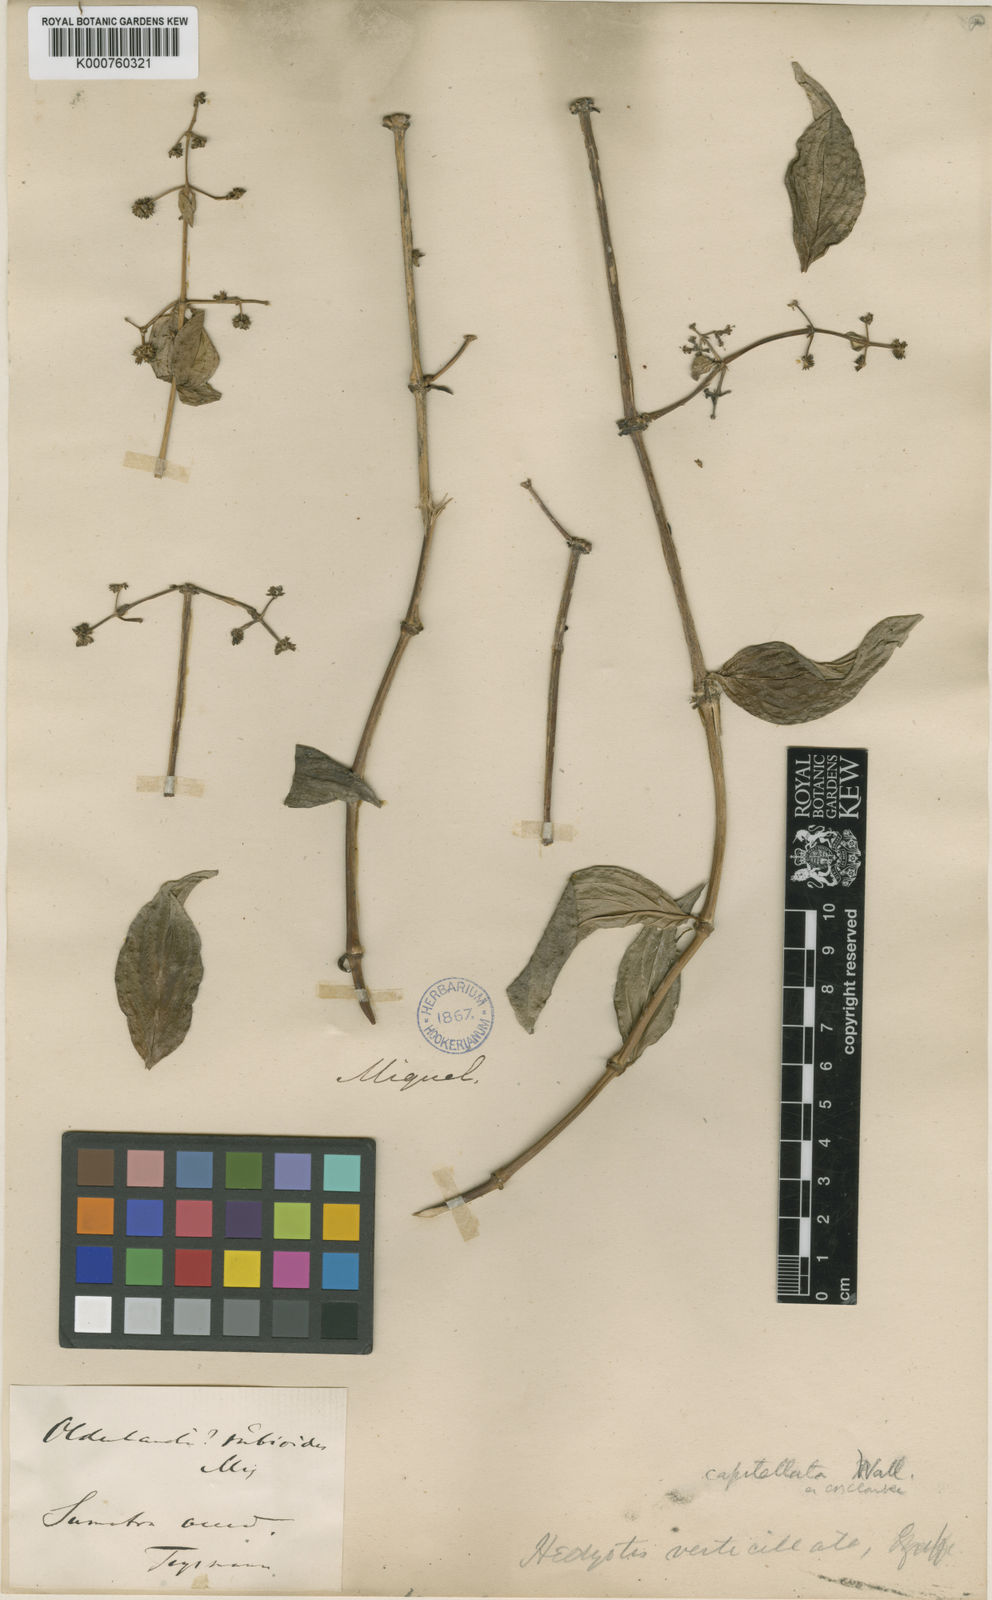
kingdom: Plantae
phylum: Tracheophyta
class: Magnoliopsida
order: Gentianales
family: Rubiaceae
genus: Dimetia
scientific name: Dimetia capitellata
